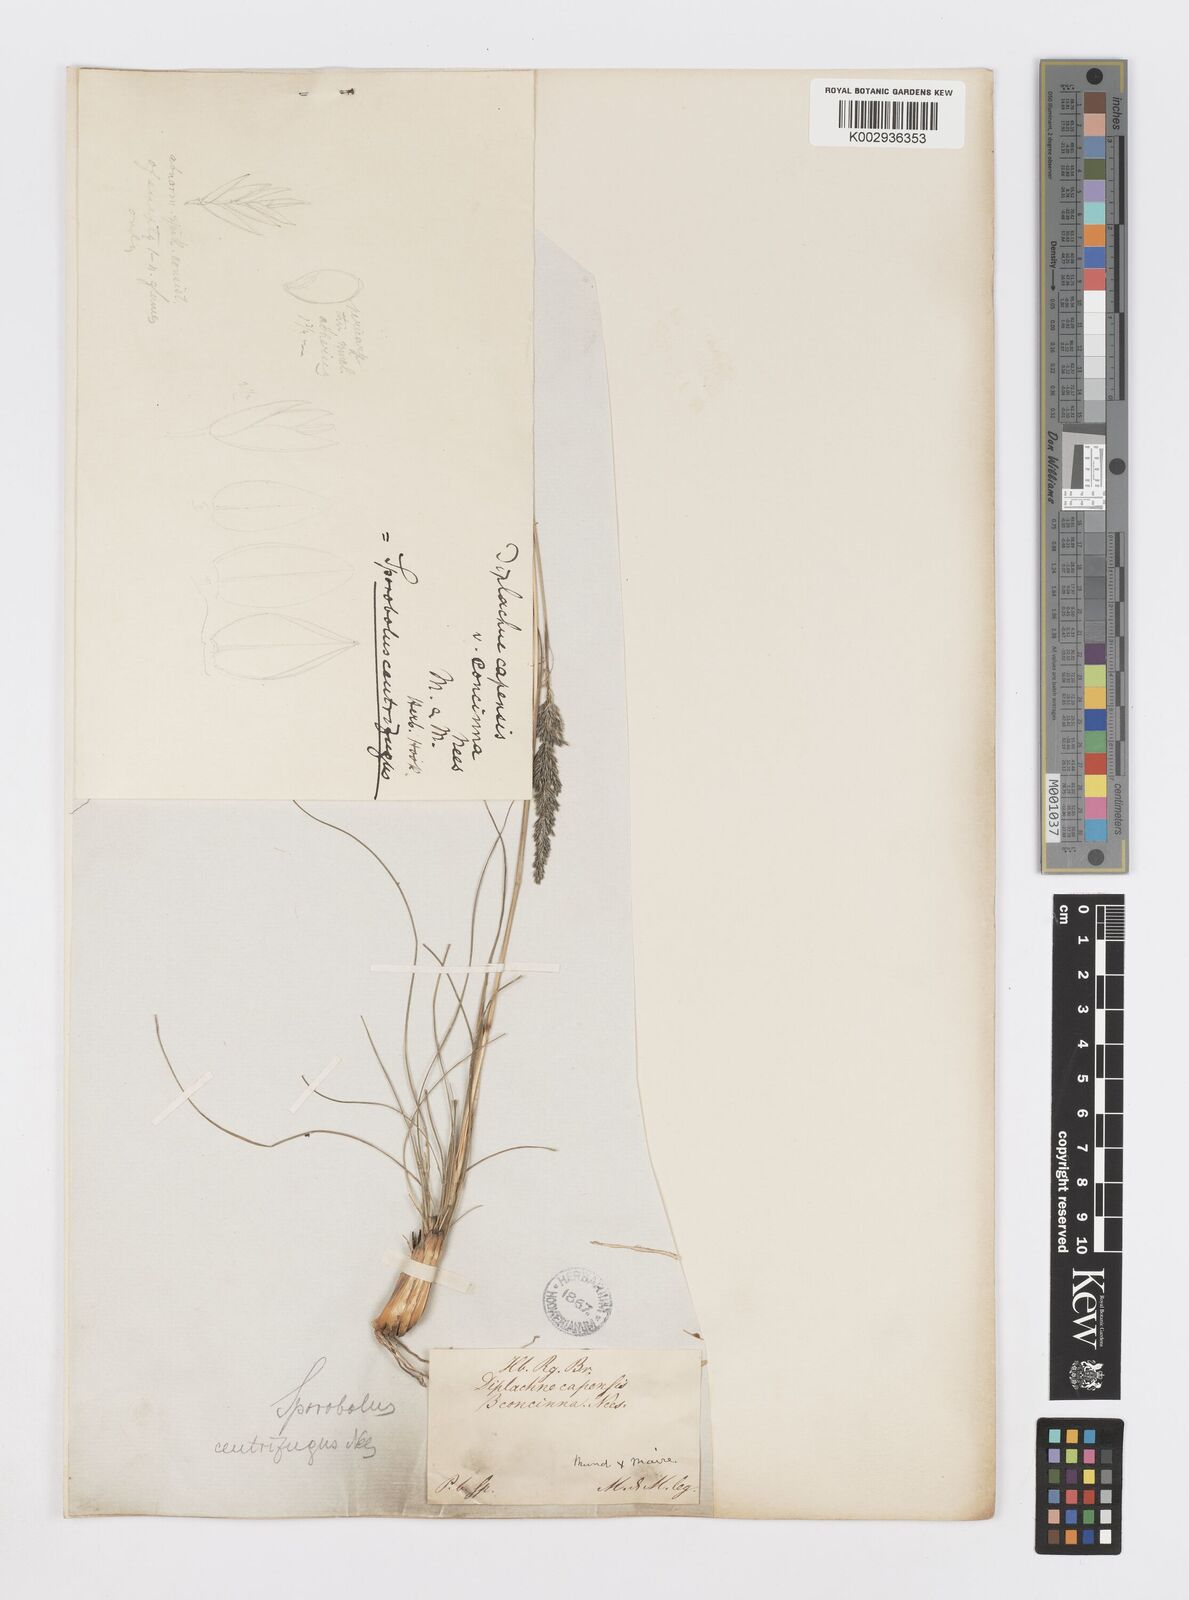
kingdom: Plantae
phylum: Tracheophyta
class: Liliopsida
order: Poales
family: Poaceae
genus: Sporobolus
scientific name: Sporobolus centrifugus
